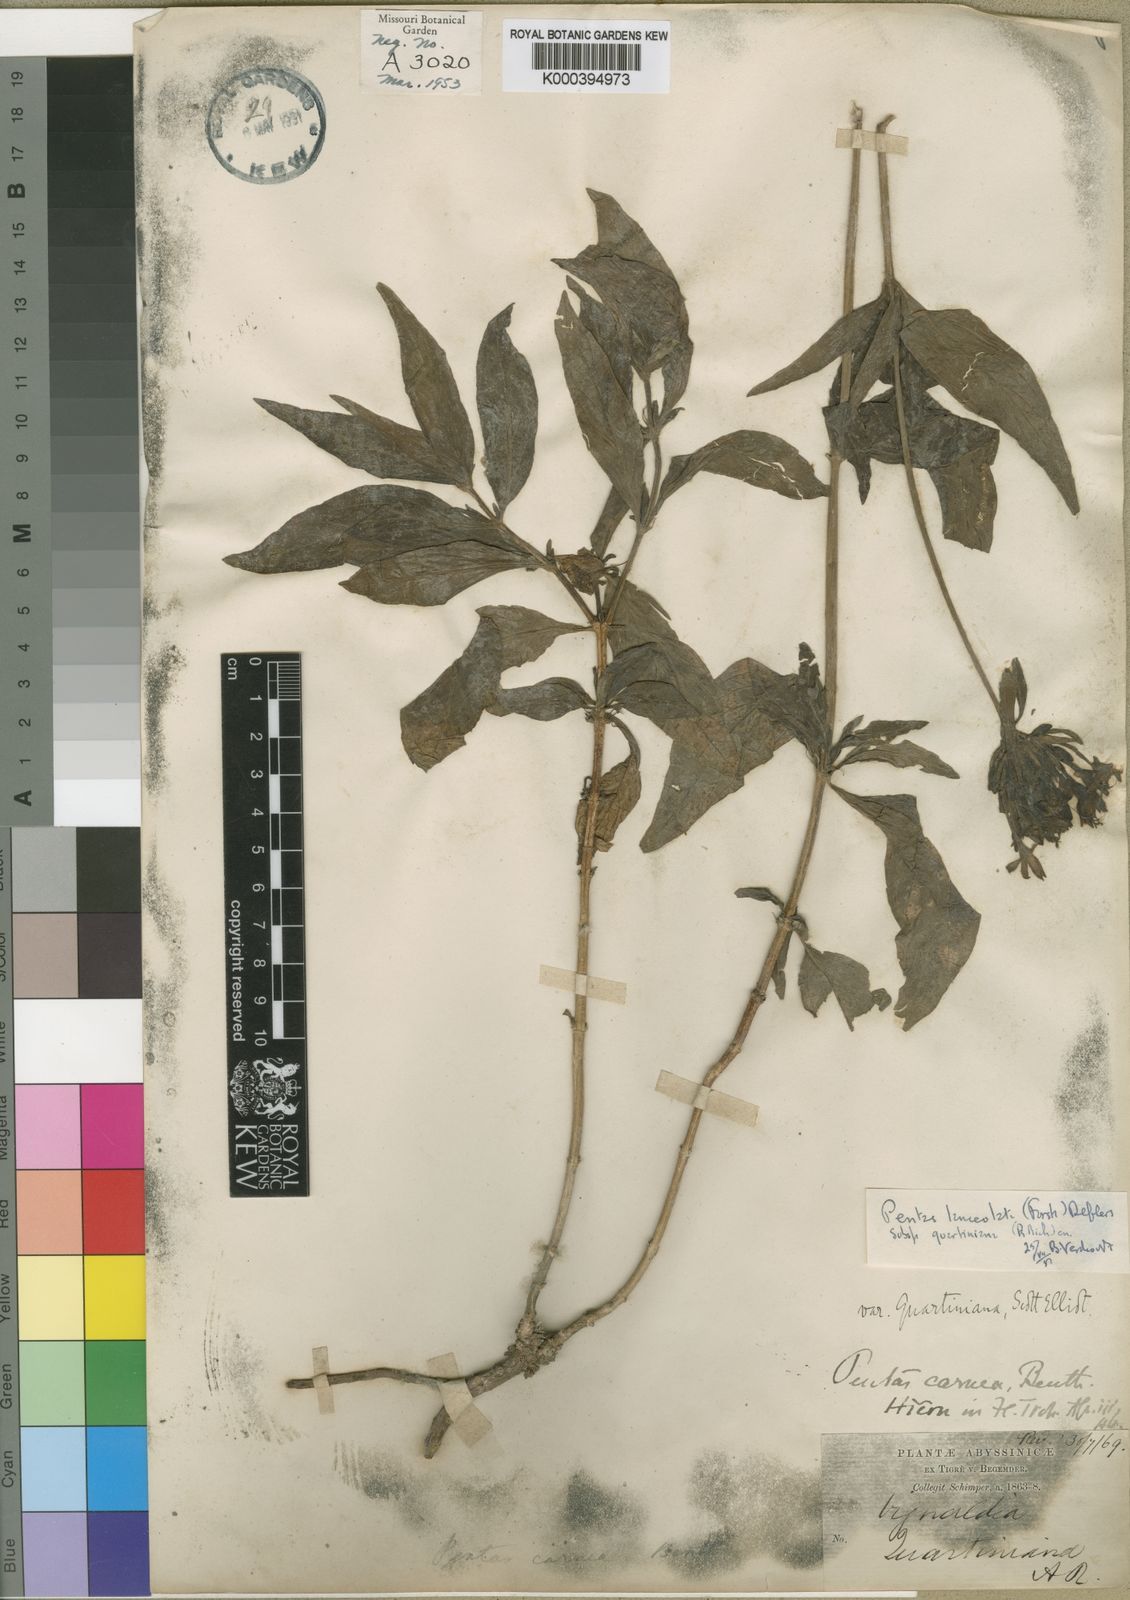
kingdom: Plantae
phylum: Tracheophyta
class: Magnoliopsida
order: Gentianales
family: Rubiaceae
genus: Pentas
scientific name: Pentas lanceolata
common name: Egyptian starcluster
